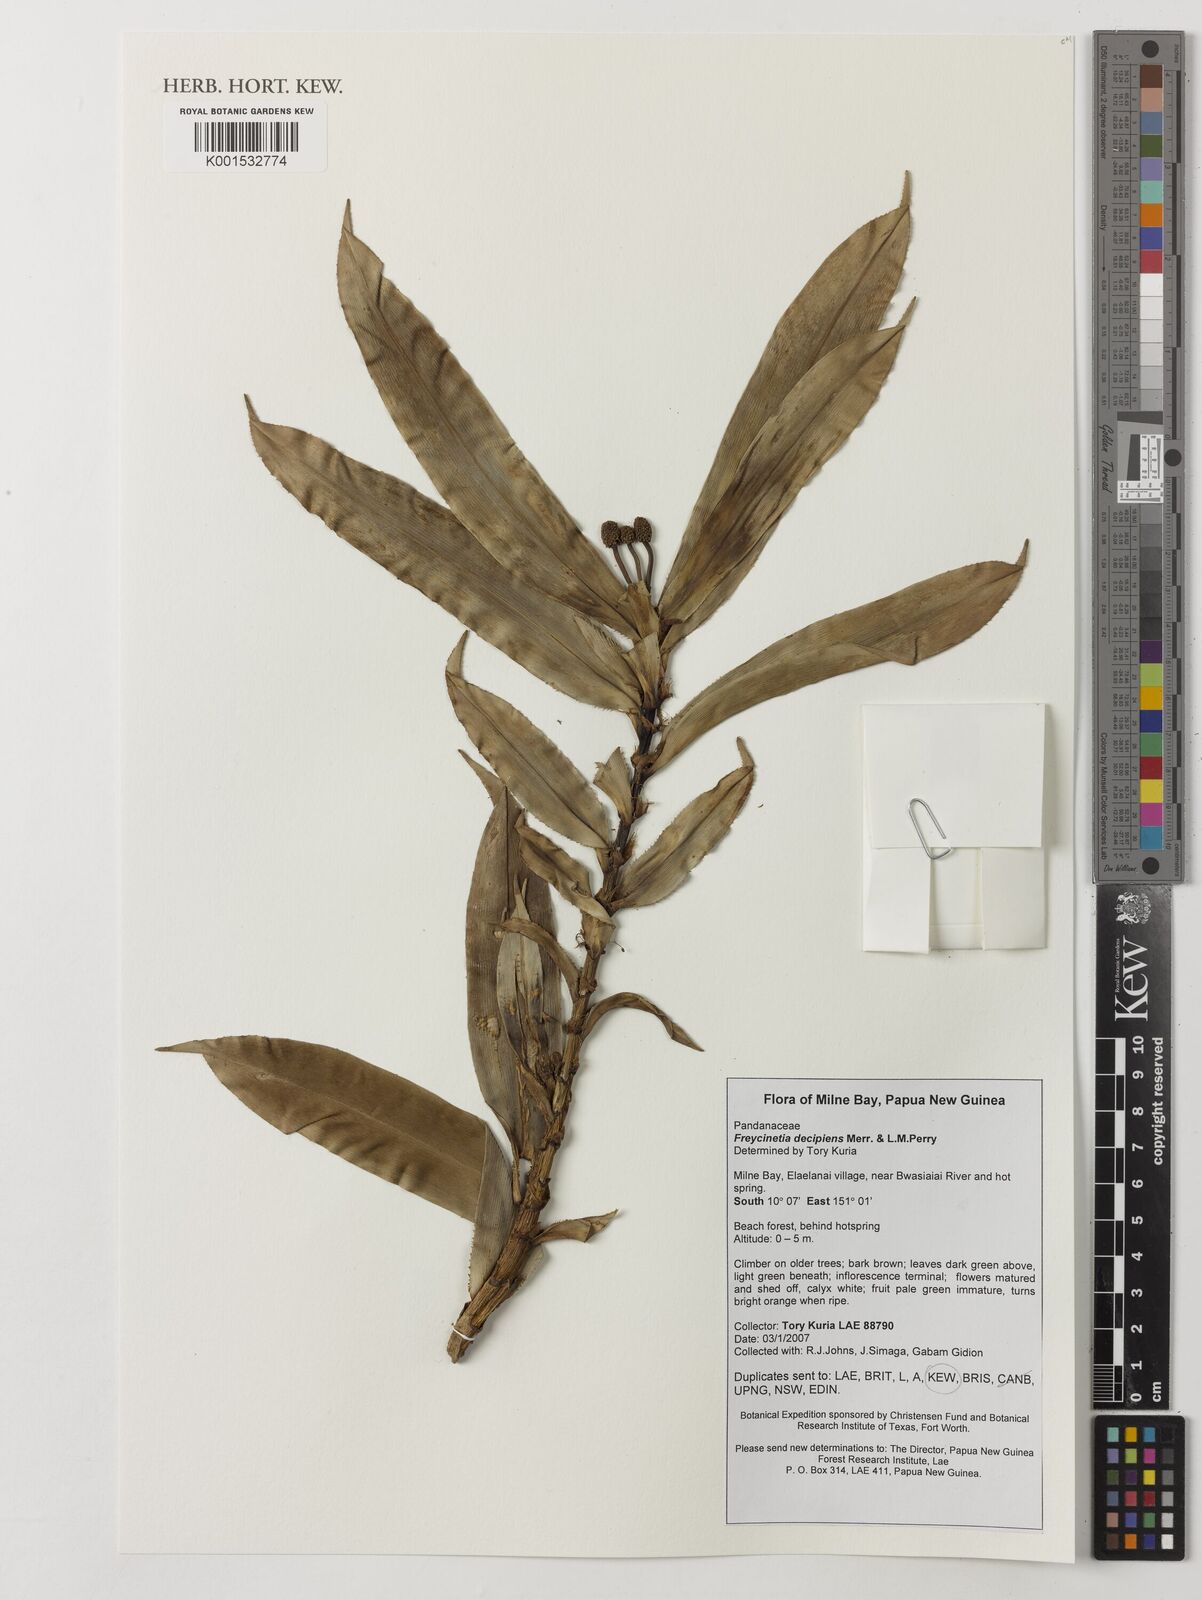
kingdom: Plantae
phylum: Tracheophyta
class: Liliopsida
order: Pandanales
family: Pandanaceae
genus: Freycinetia
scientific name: Freycinetia decipiens
